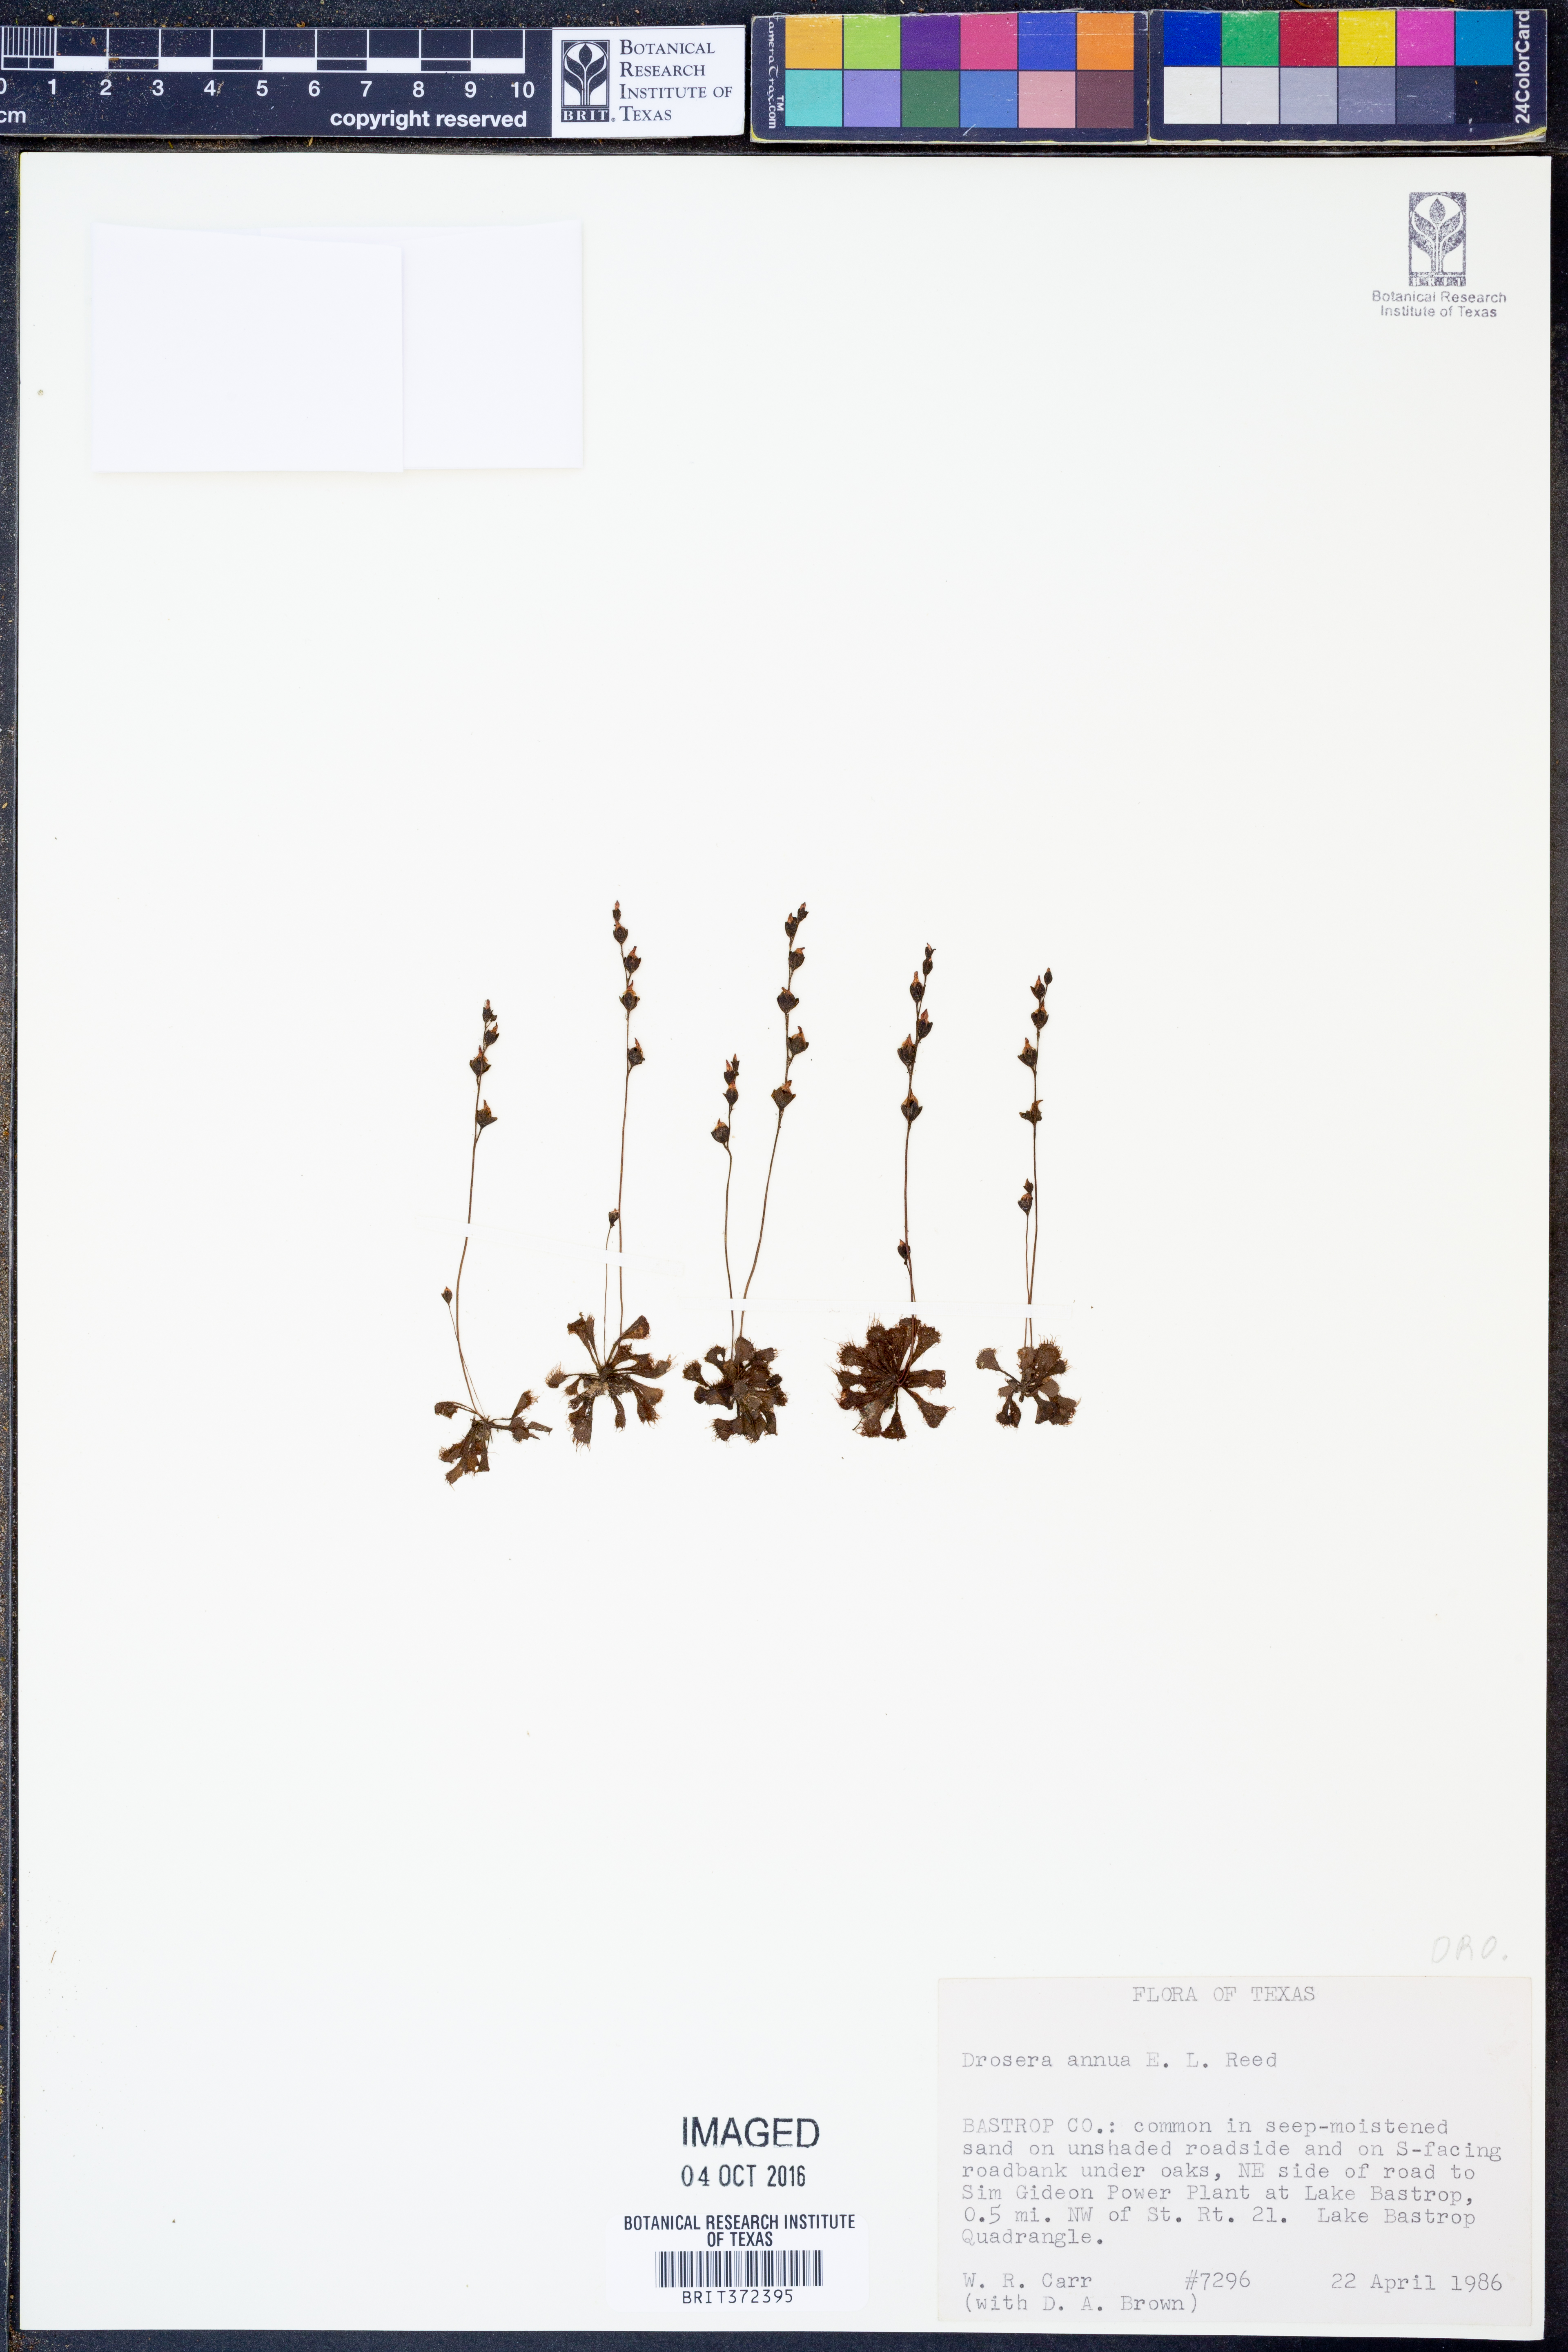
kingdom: Plantae
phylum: Tracheophyta
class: Magnoliopsida
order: Caryophyllales
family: Droseraceae
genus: Drosera
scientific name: Drosera brevifolia
